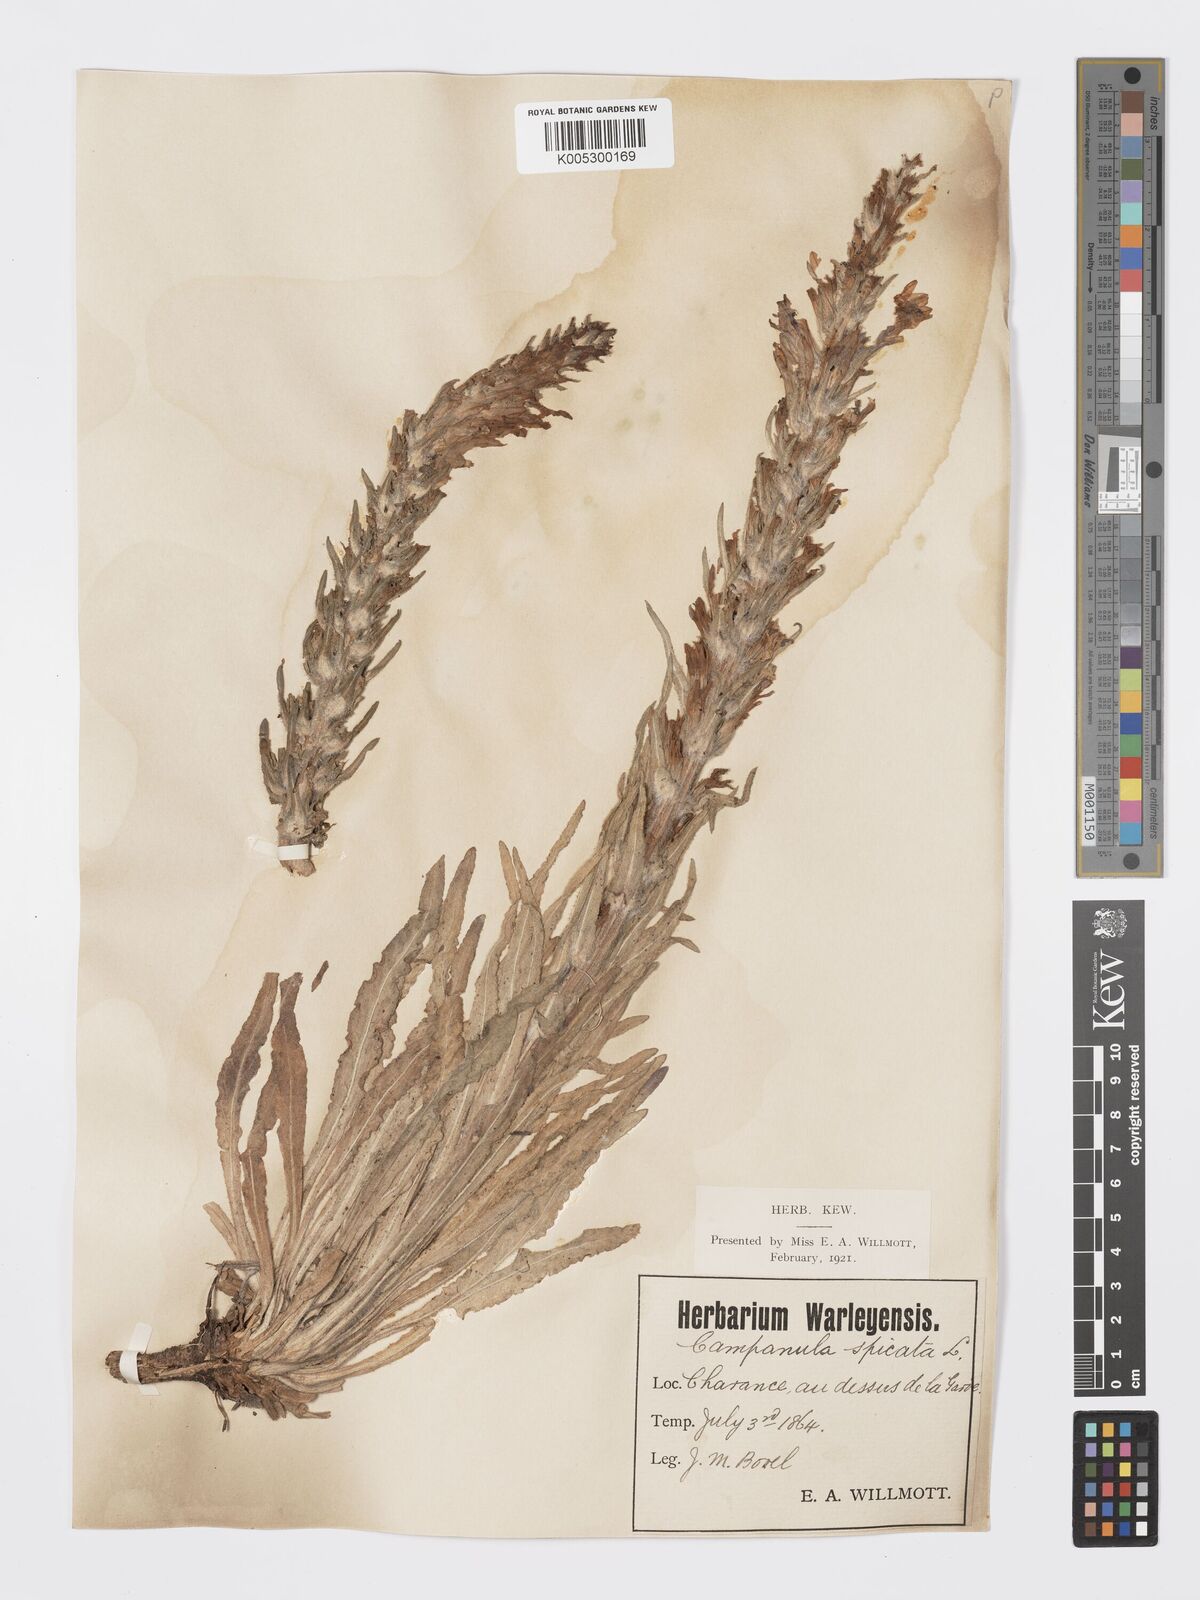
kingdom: Plantae
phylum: Tracheophyta
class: Magnoliopsida
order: Asterales
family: Campanulaceae
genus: Campanula
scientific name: Campanula spicata
